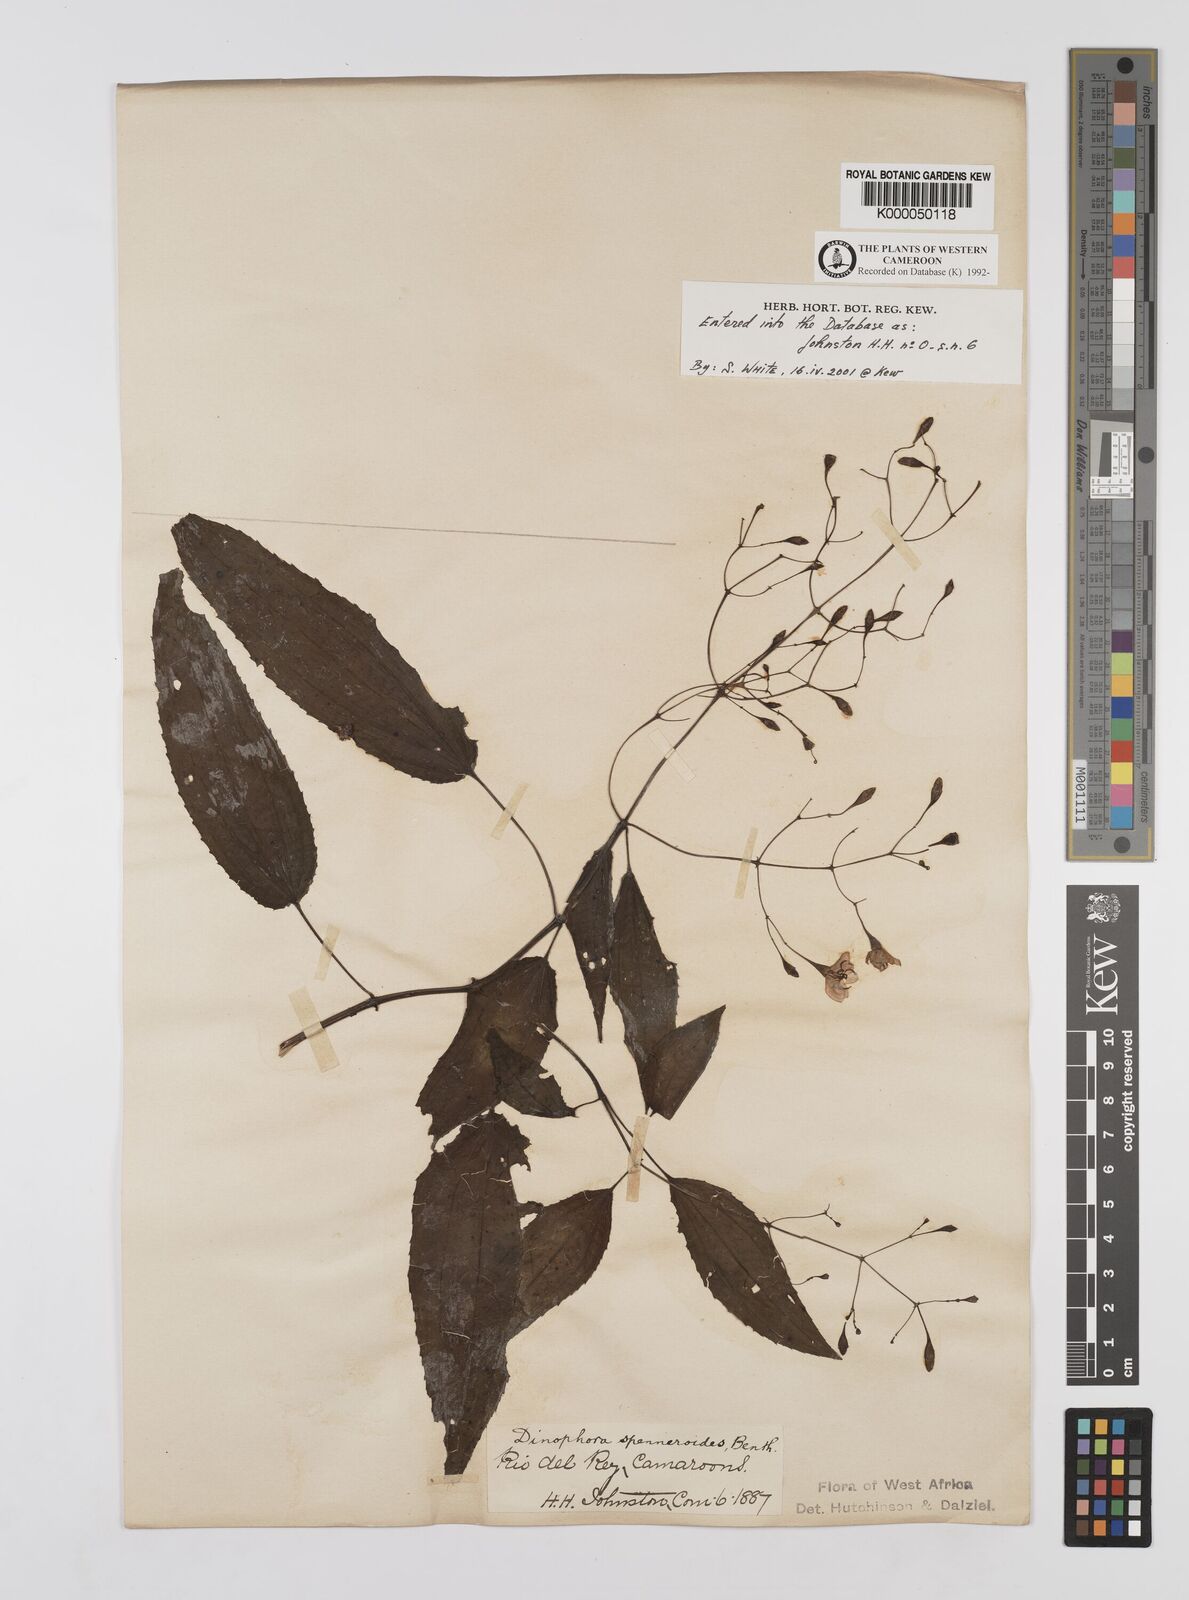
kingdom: Plantae
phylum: Tracheophyta
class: Magnoliopsida
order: Myrtales
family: Melastomataceae
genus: Dinophora
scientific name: Dinophora spenneroides
